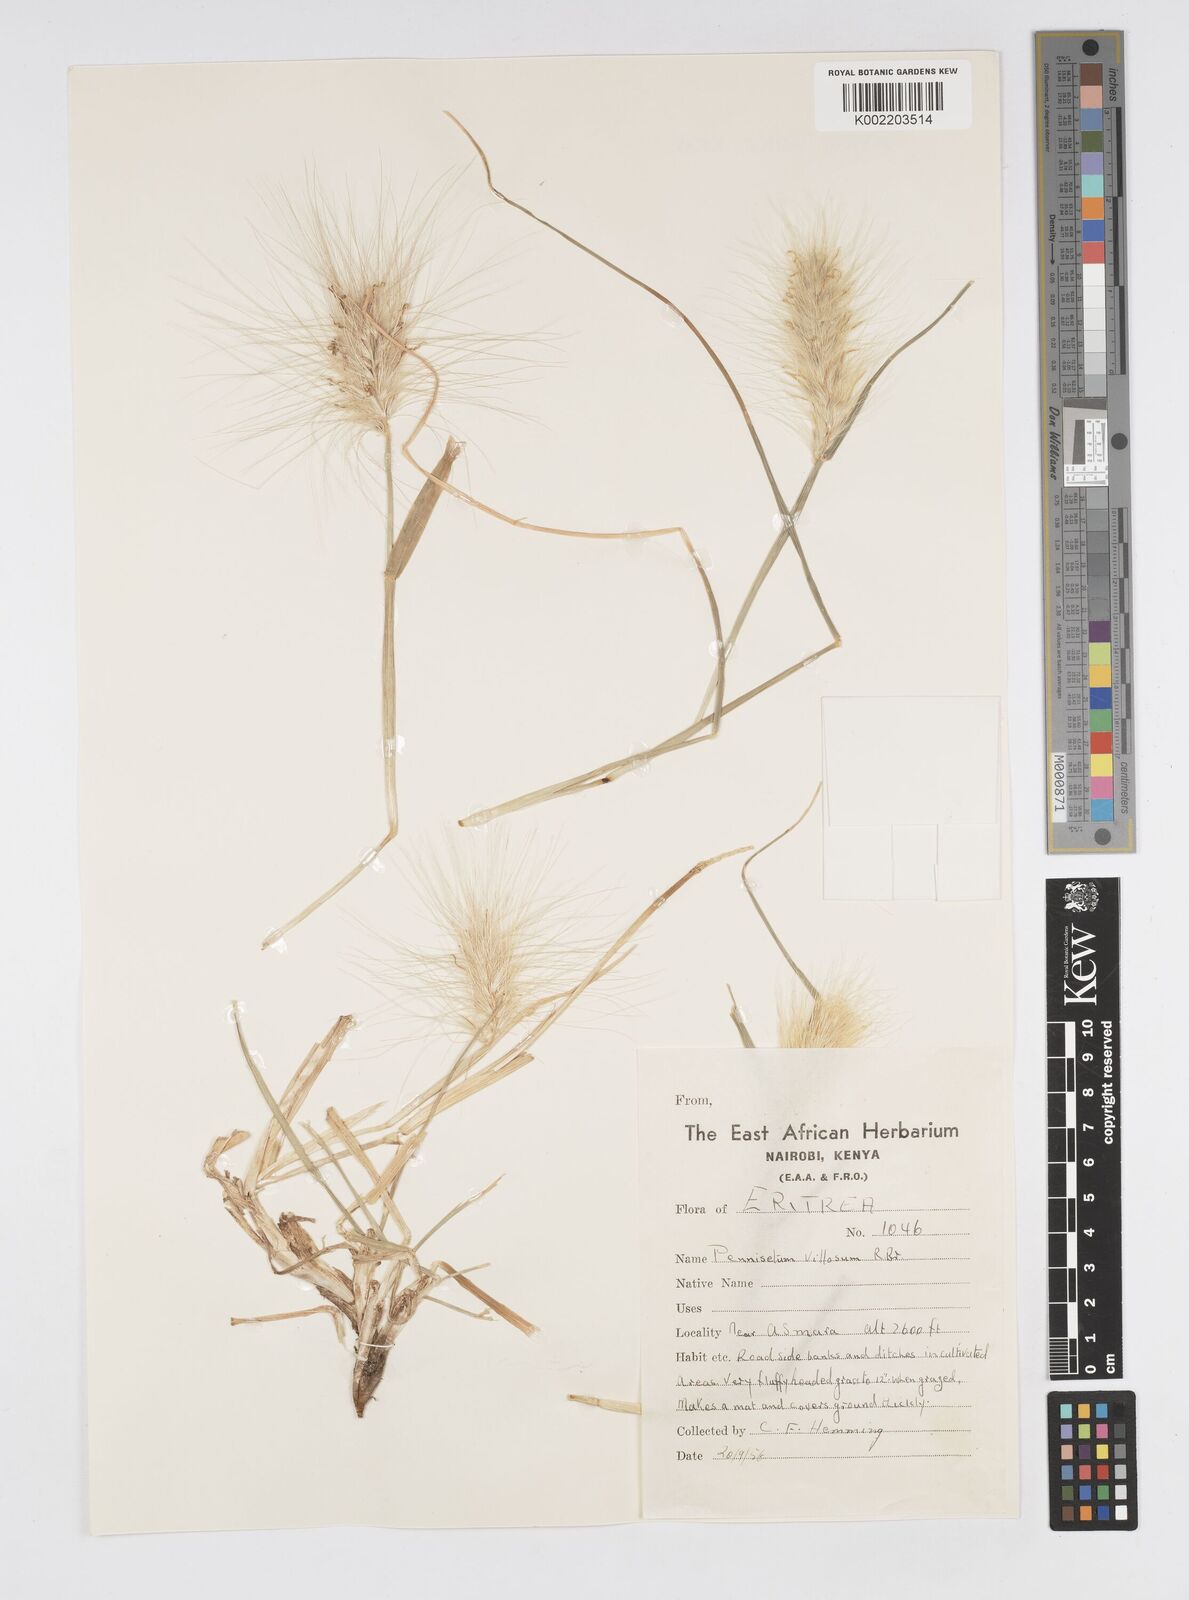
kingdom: Plantae
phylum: Tracheophyta
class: Liliopsida
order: Poales
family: Poaceae
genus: Cenchrus
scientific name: Cenchrus longisetus
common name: Feathertop
